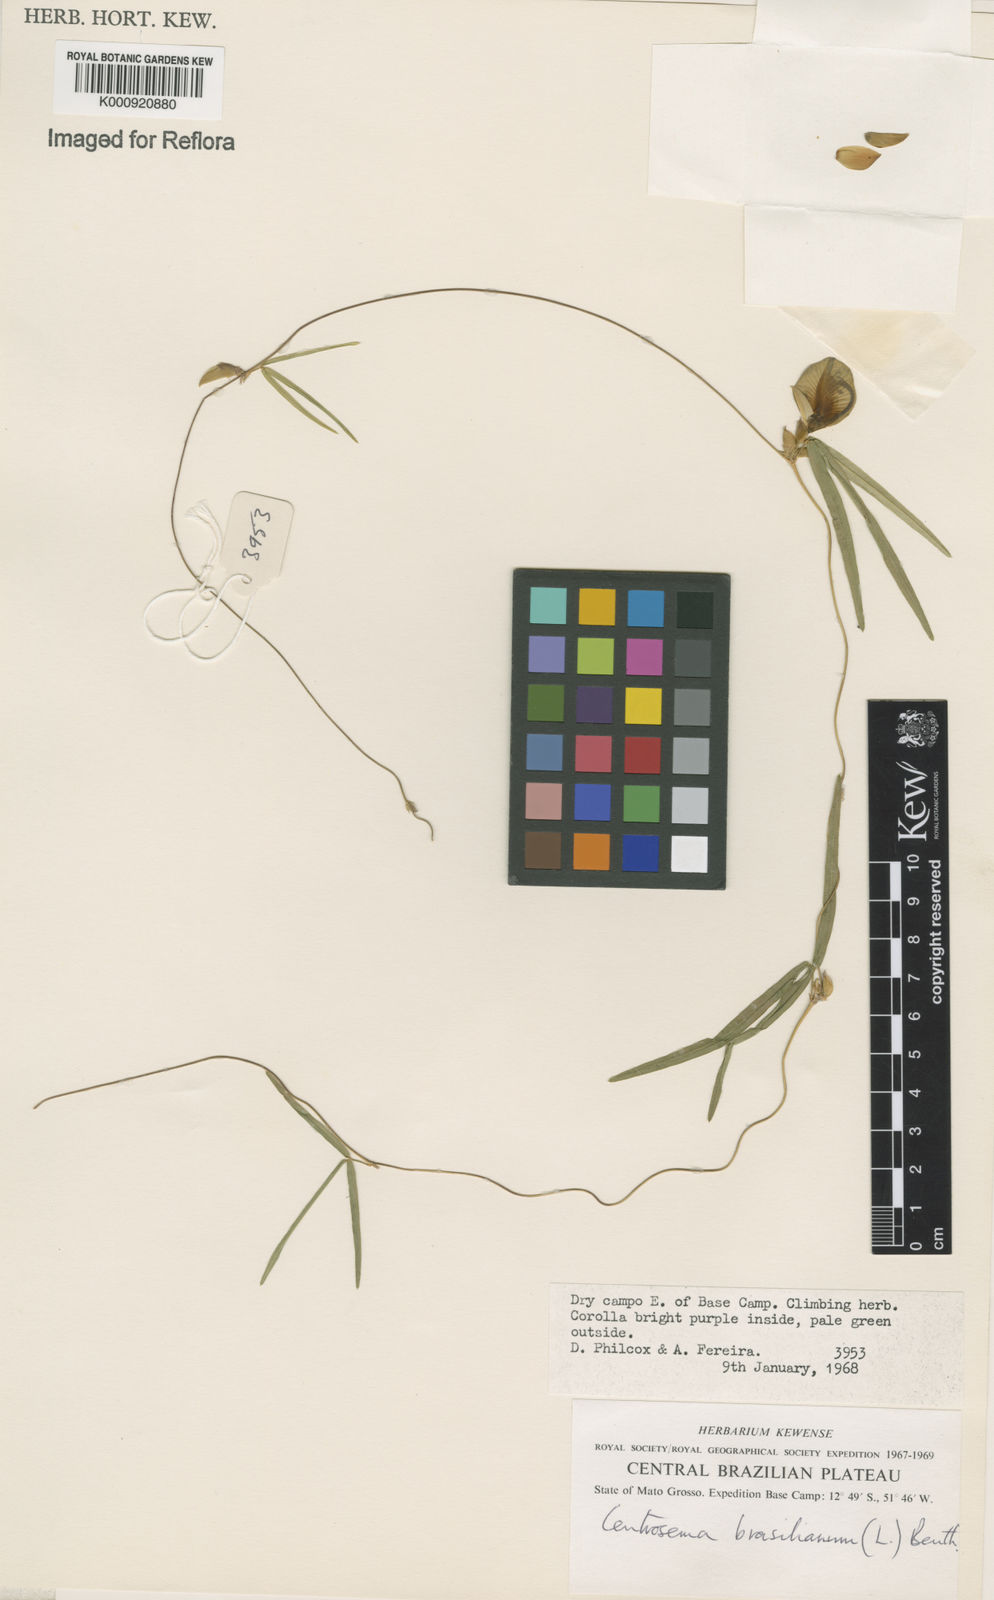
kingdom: Plantae
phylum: Tracheophyta
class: Magnoliopsida
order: Fabales
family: Fabaceae
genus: Centrosema
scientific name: Centrosema
